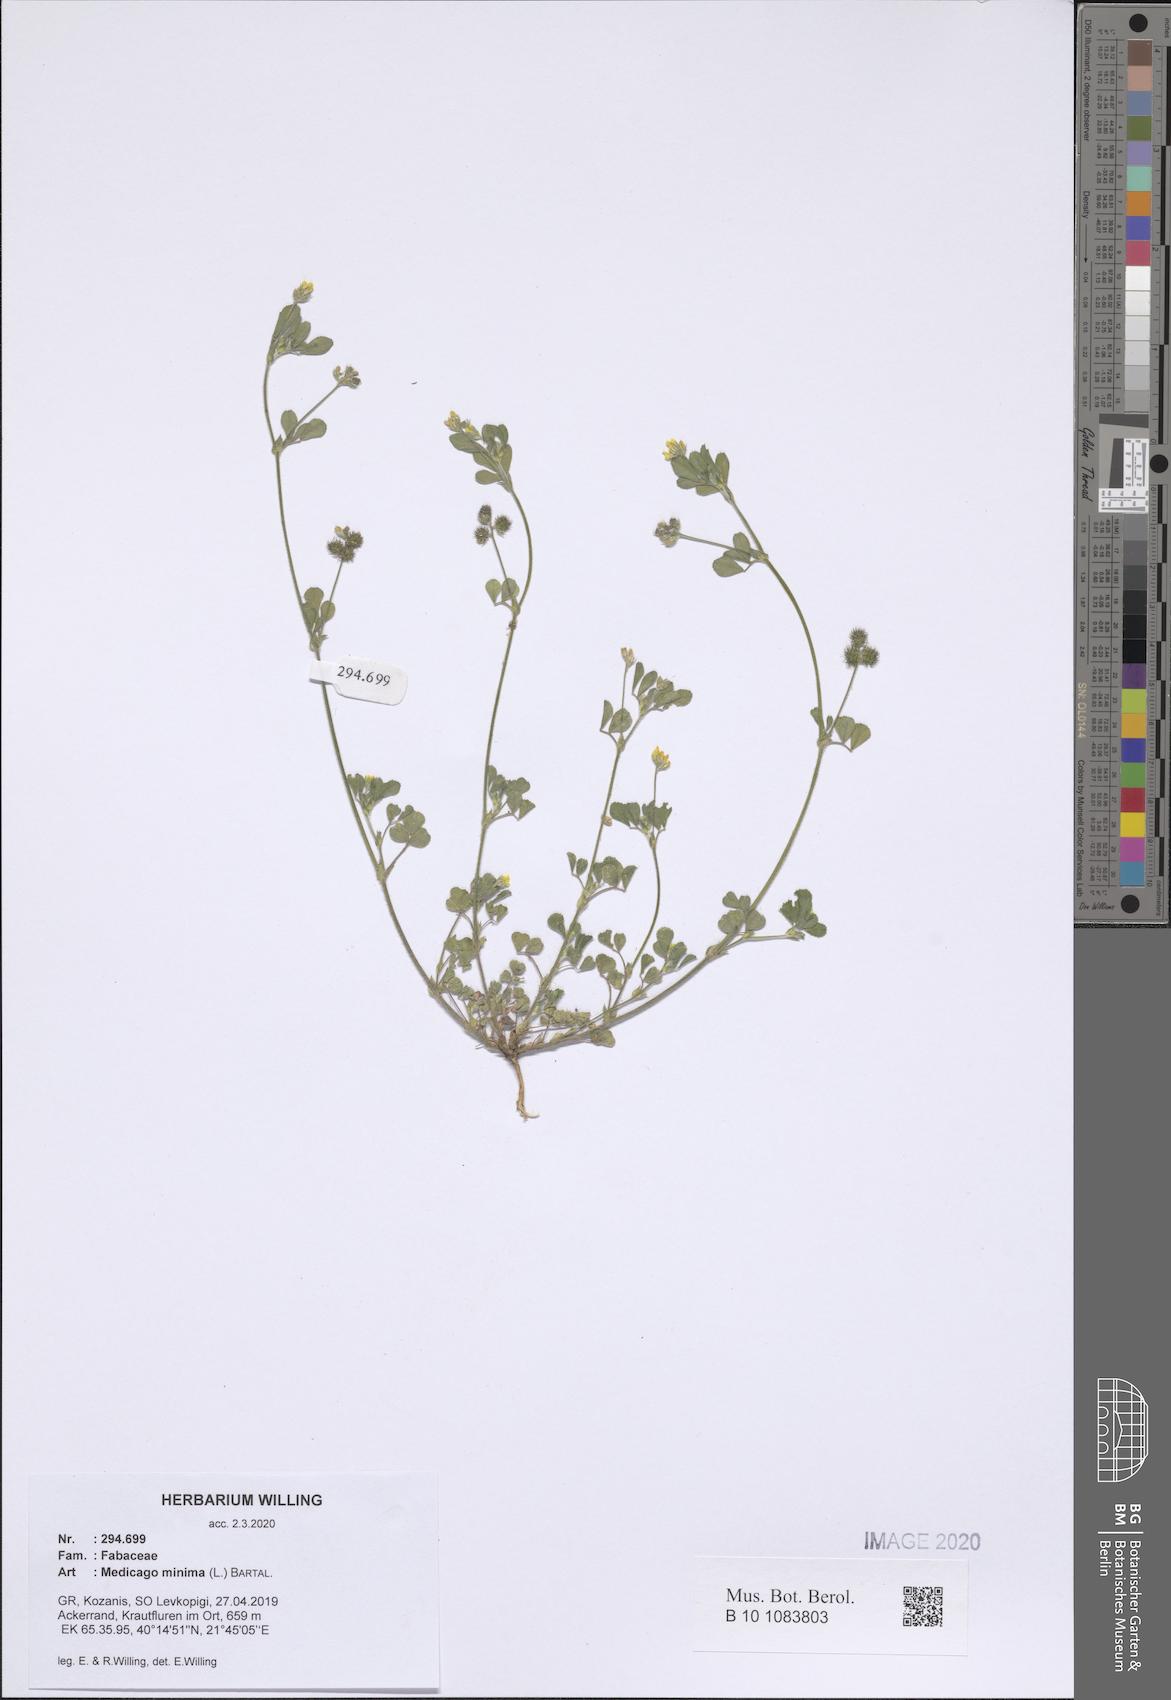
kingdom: Plantae
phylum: Tracheophyta
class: Magnoliopsida
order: Fabales
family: Fabaceae
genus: Medicago
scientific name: Medicago minima
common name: Little bur-clover
